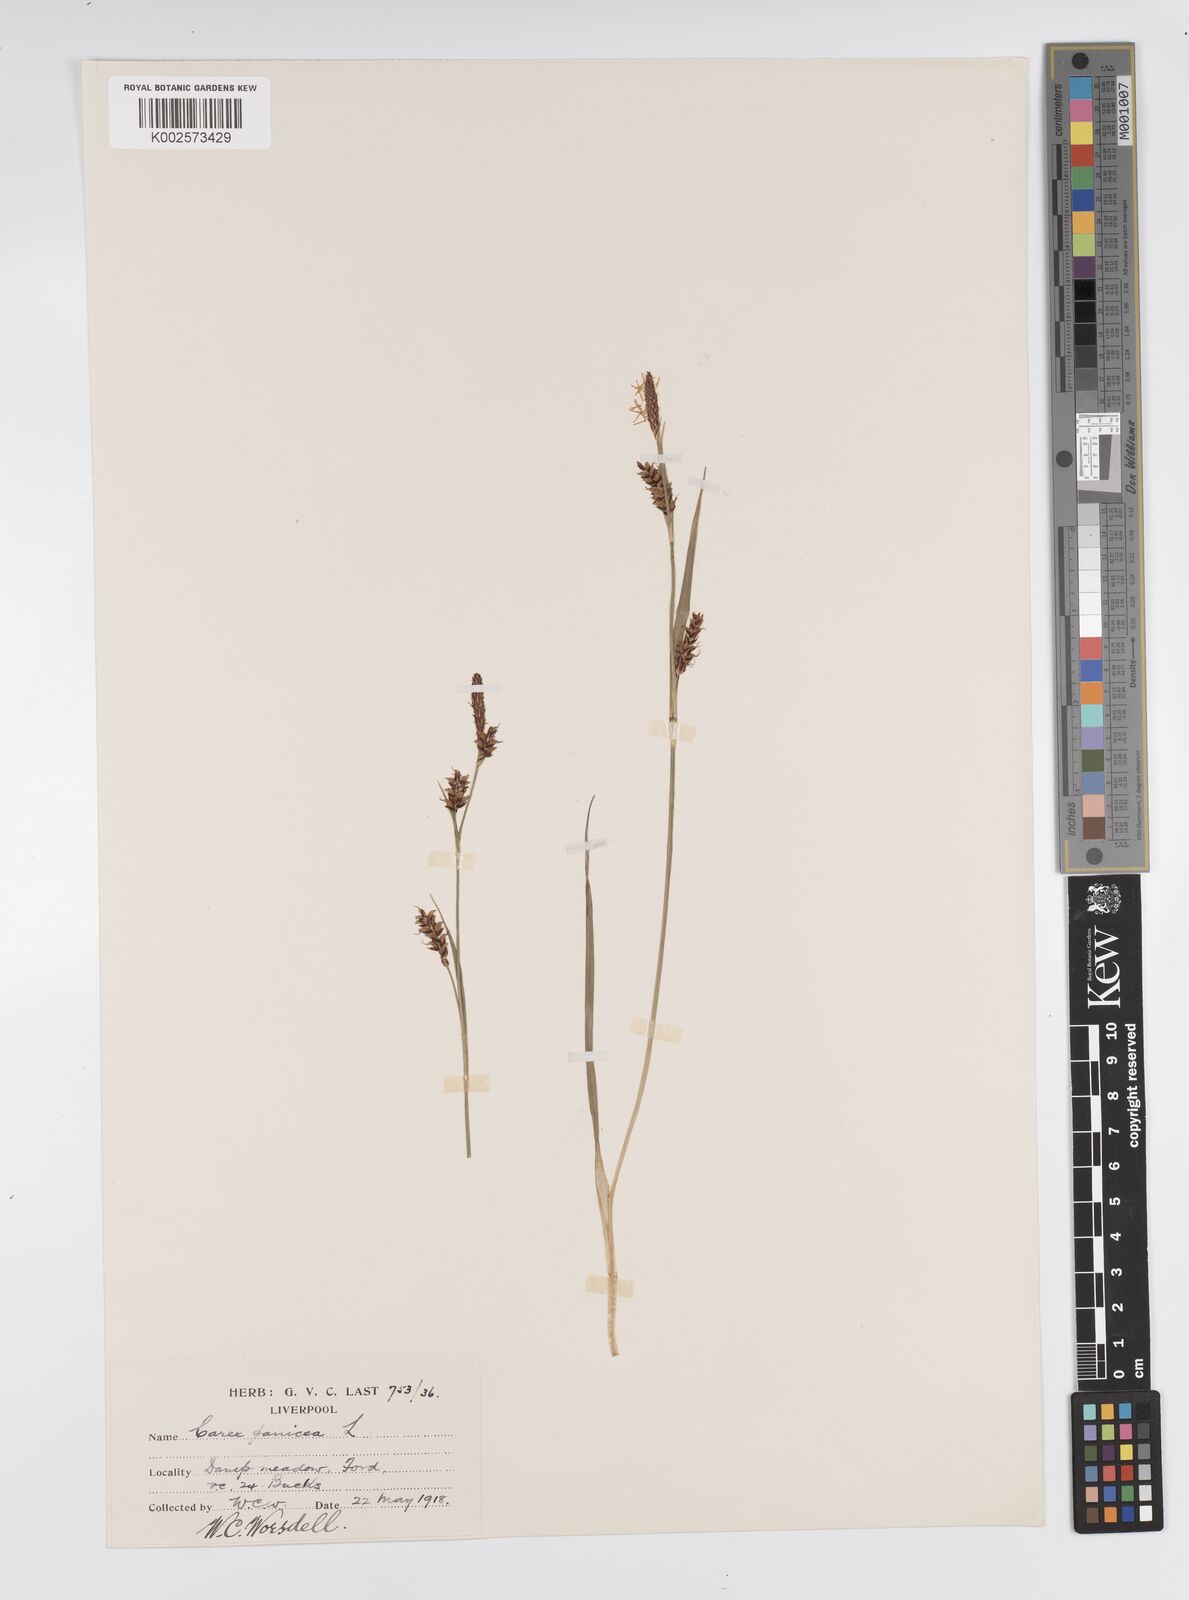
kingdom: Plantae
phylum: Tracheophyta
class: Liliopsida
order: Poales
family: Cyperaceae
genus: Carex
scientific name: Carex panicea
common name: Carnation sedge
